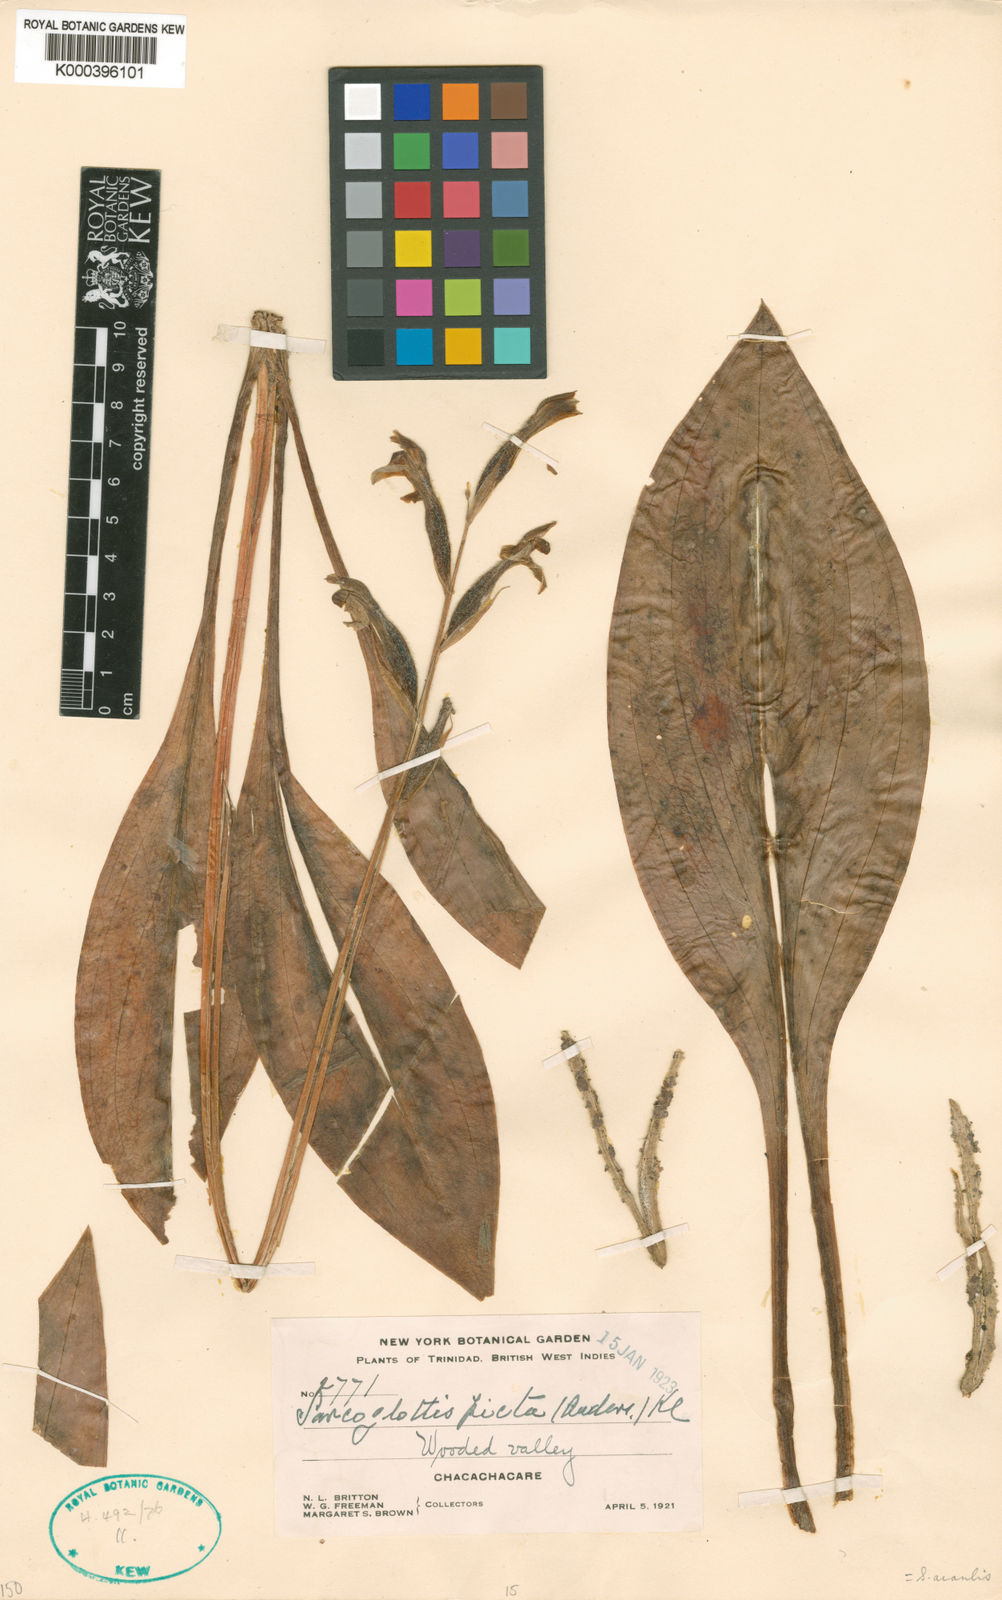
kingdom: Plantae
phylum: Tracheophyta
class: Liliopsida
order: Asparagales
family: Orchidaceae
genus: Sarcoglottis
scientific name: Sarcoglottis acaulis
